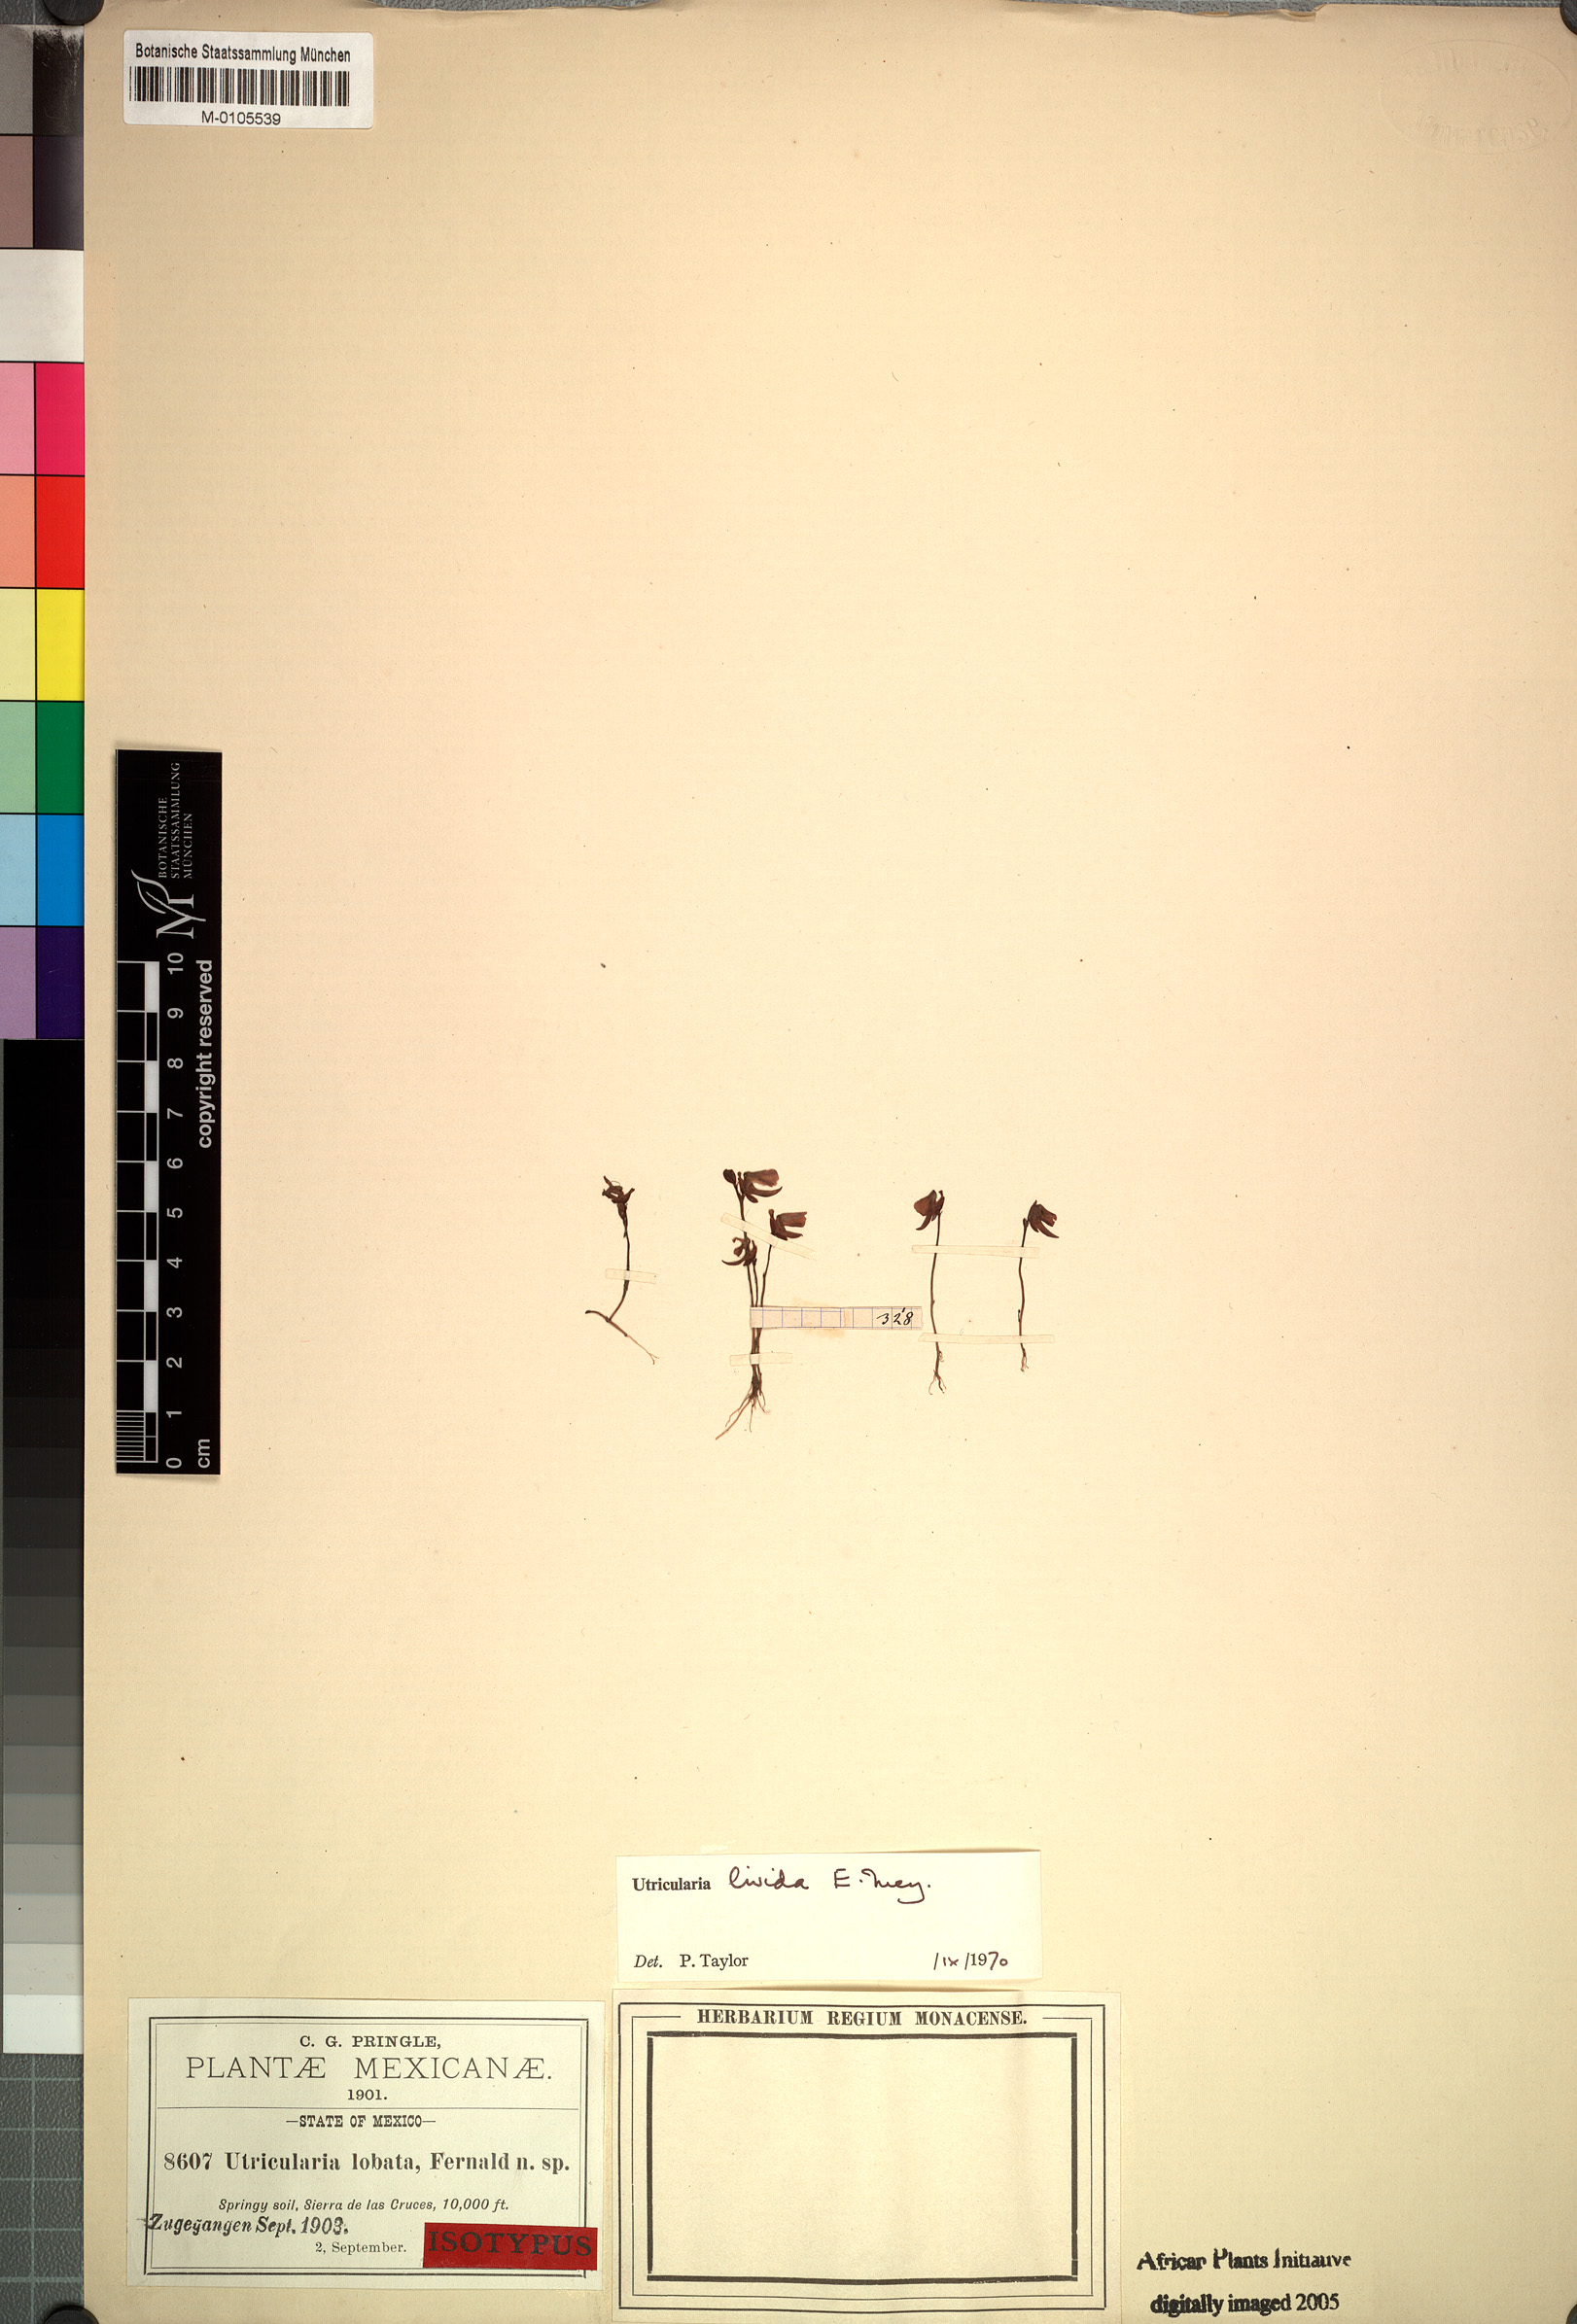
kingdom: Plantae
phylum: Tracheophyta
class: Magnoliopsida
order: Lamiales
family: Lentibulariaceae
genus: Utricularia
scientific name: Utricularia livida
